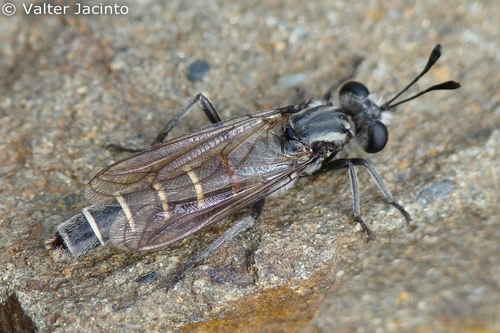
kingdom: Animalia
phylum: Arthropoda
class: Insecta
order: Diptera
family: Mydidae
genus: Leptomydas
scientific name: Leptomydas lusitanicus
